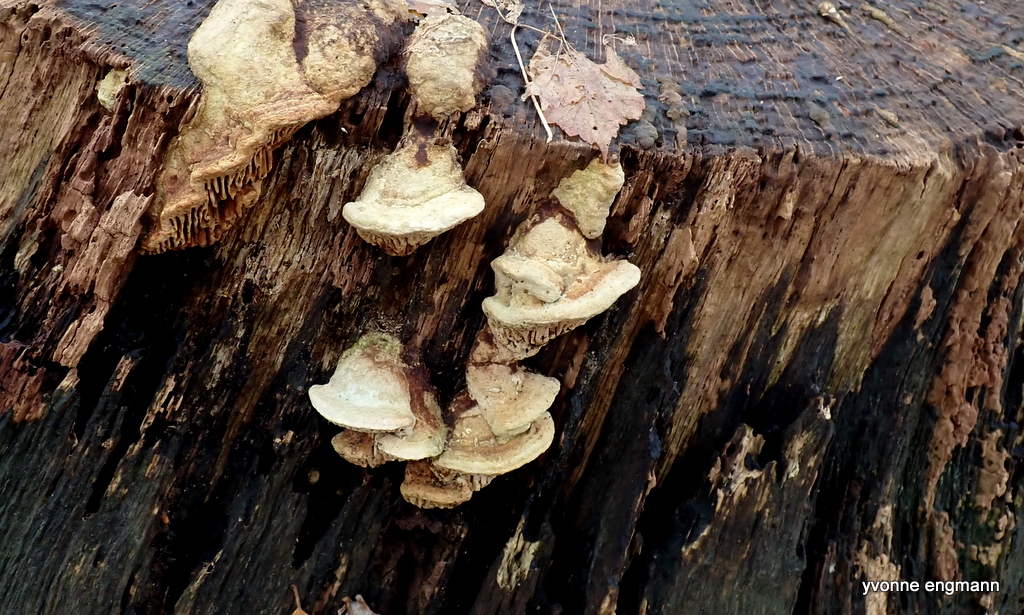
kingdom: Fungi
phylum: Basidiomycota
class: Agaricomycetes
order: Polyporales
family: Fomitopsidaceae
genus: Daedalea
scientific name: Daedalea quercina
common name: ege-labyrintsvamp
